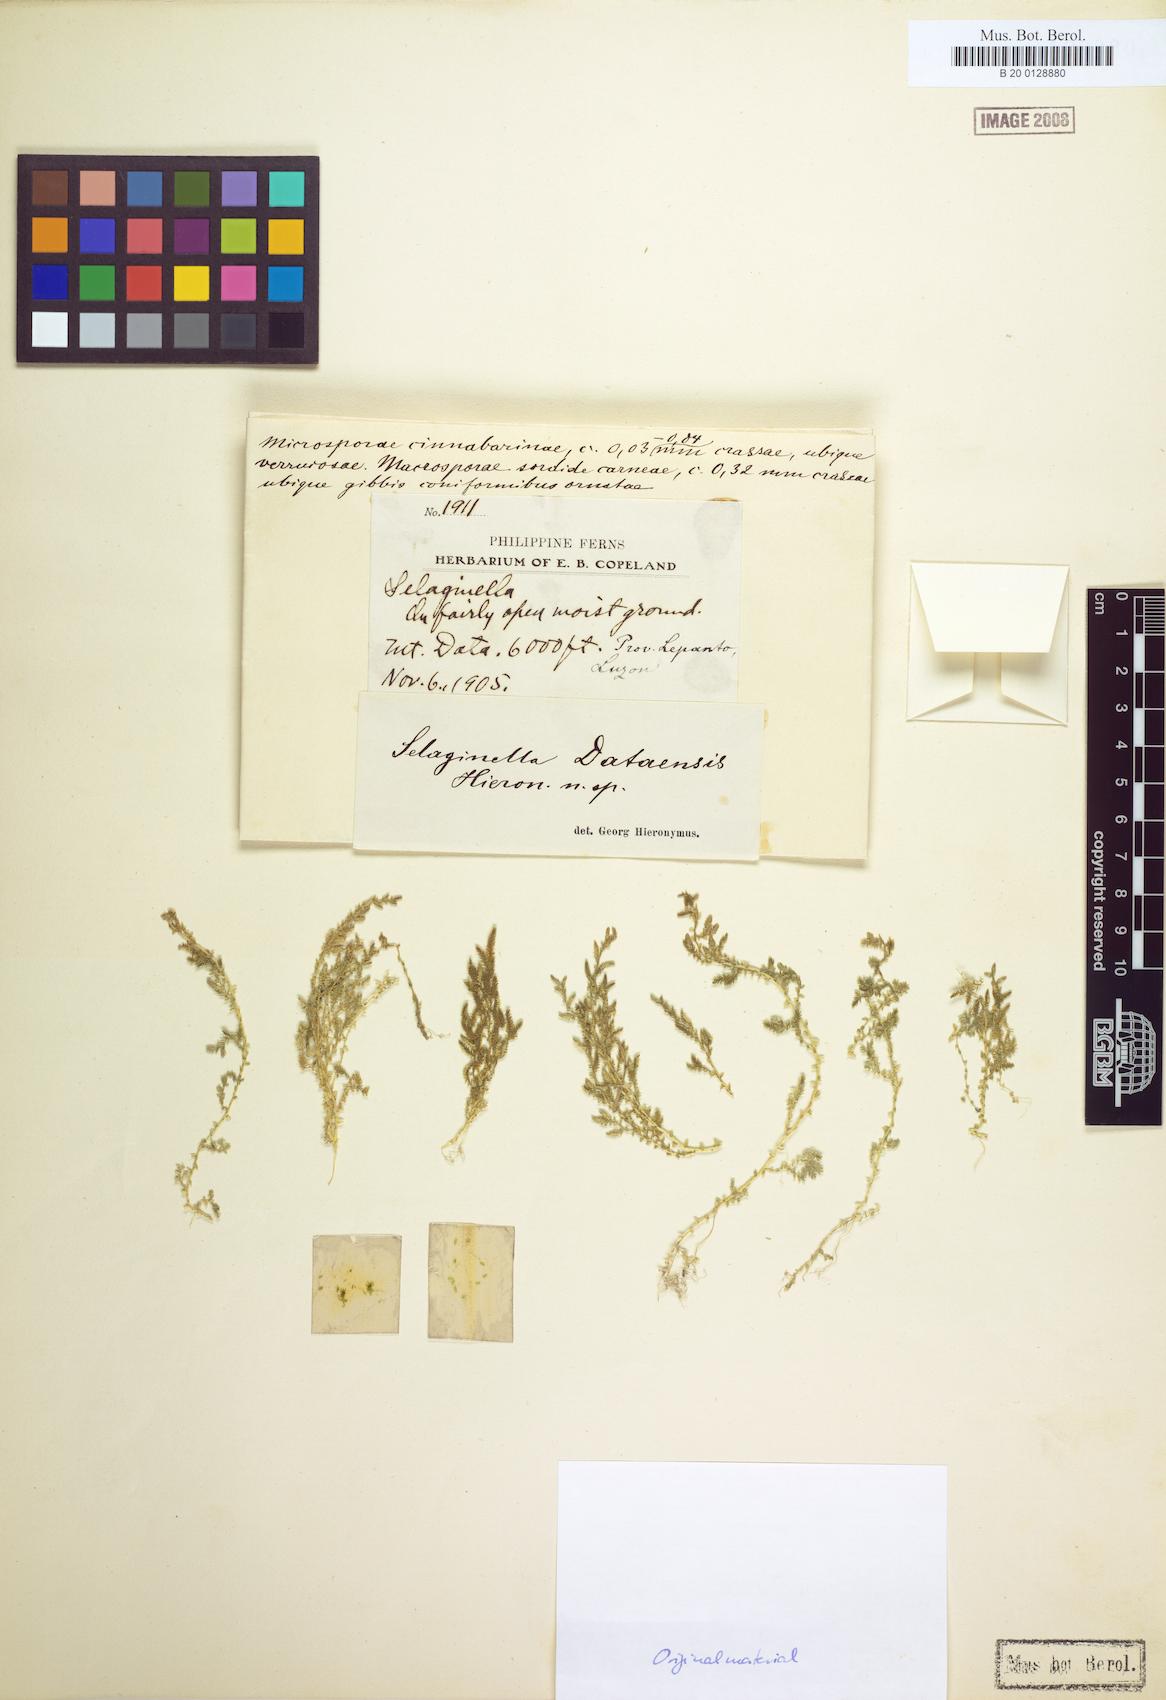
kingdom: Plantae
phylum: Tracheophyta
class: Lycopodiopsida
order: Selaginellales
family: Selaginellaceae
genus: Selaginella
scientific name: Selaginella
